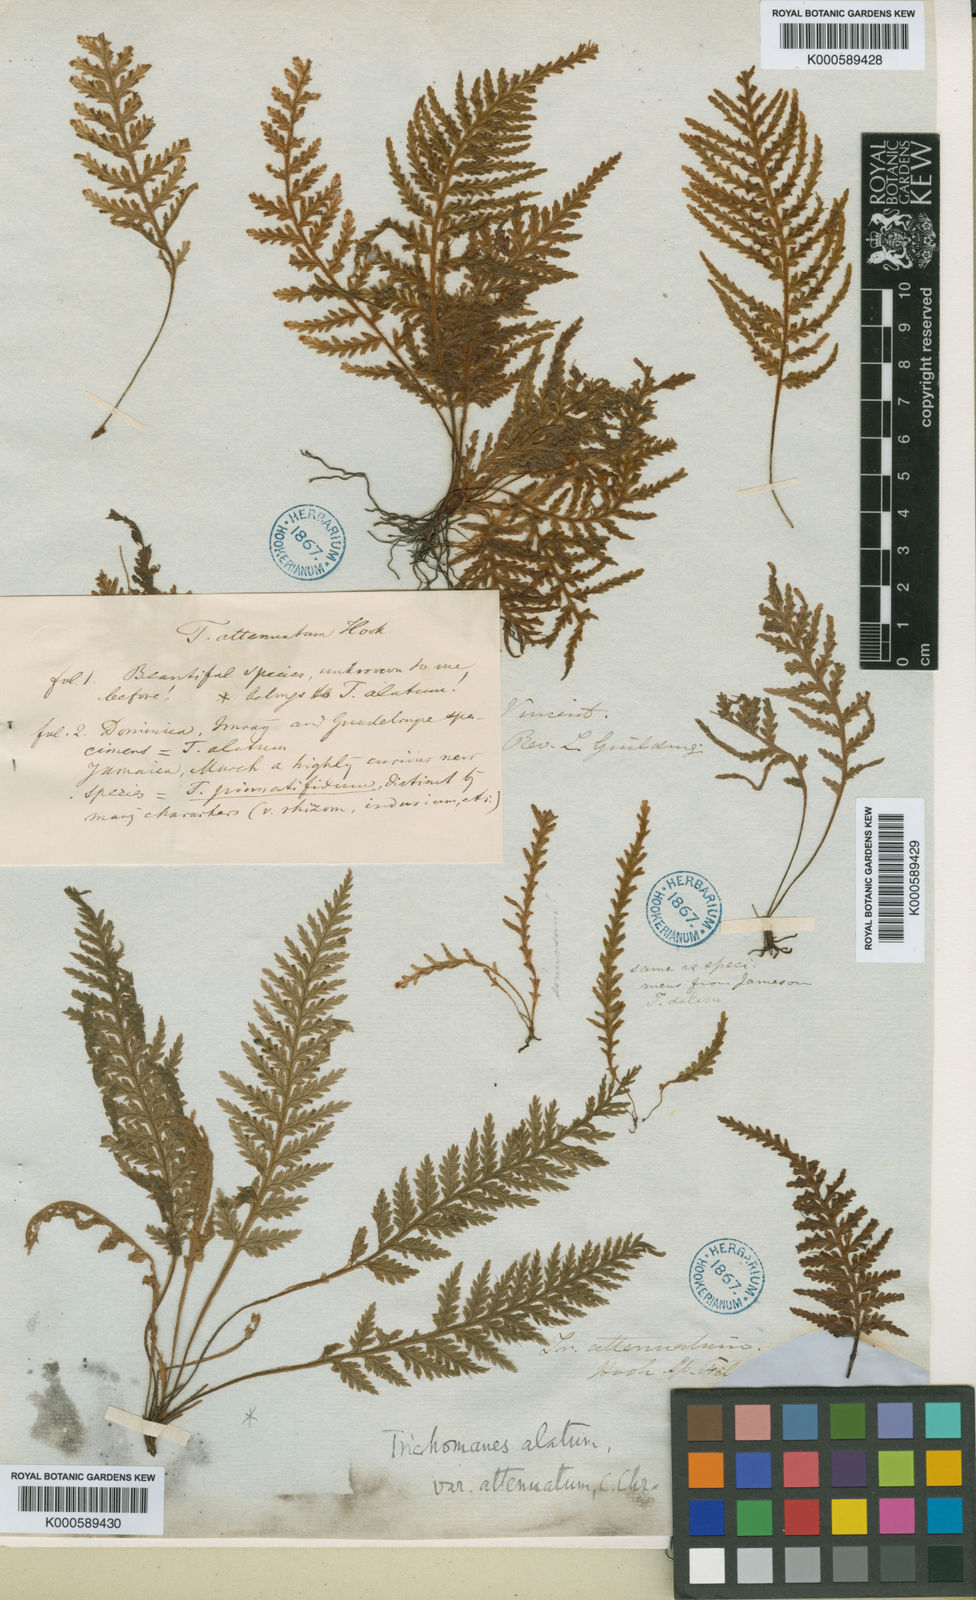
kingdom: Plantae
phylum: Tracheophyta
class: Polypodiopsida
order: Hymenophyllales
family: Hymenophyllaceae
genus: Trichomanes
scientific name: Trichomanes alatum
